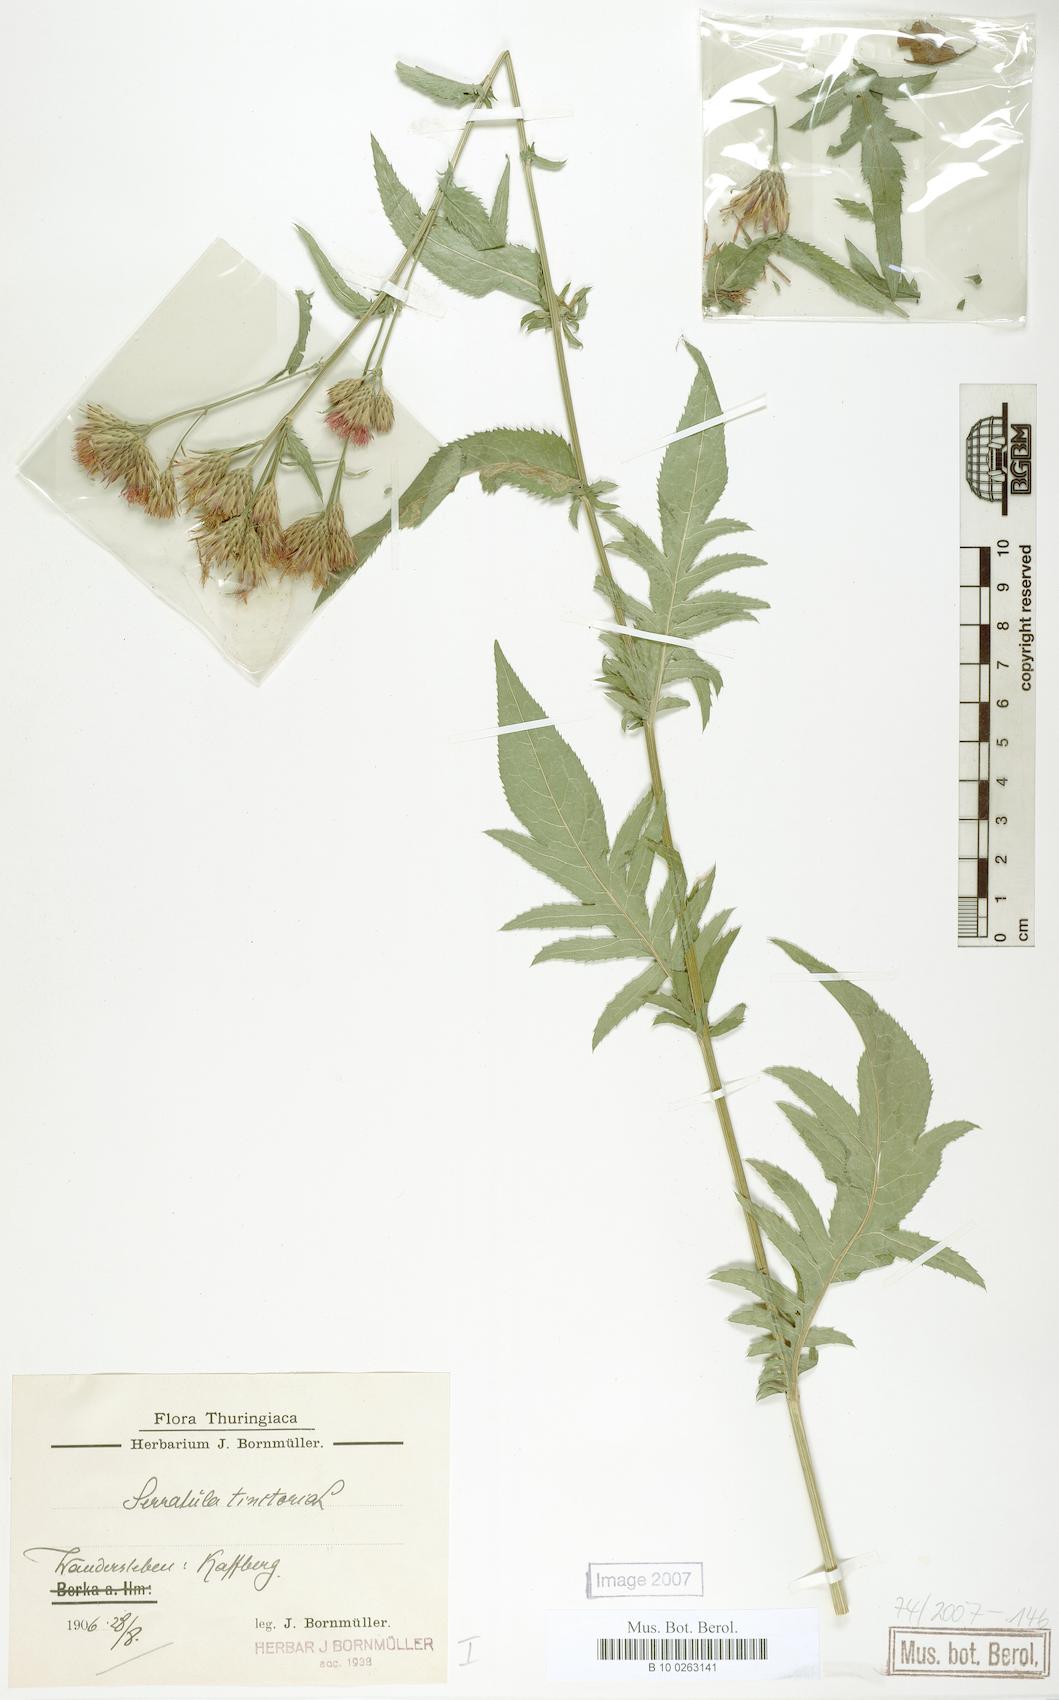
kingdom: Plantae
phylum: Tracheophyta
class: Magnoliopsida
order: Asterales
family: Asteraceae
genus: Serratula
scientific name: Serratula tinctoria
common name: Saw-wort
